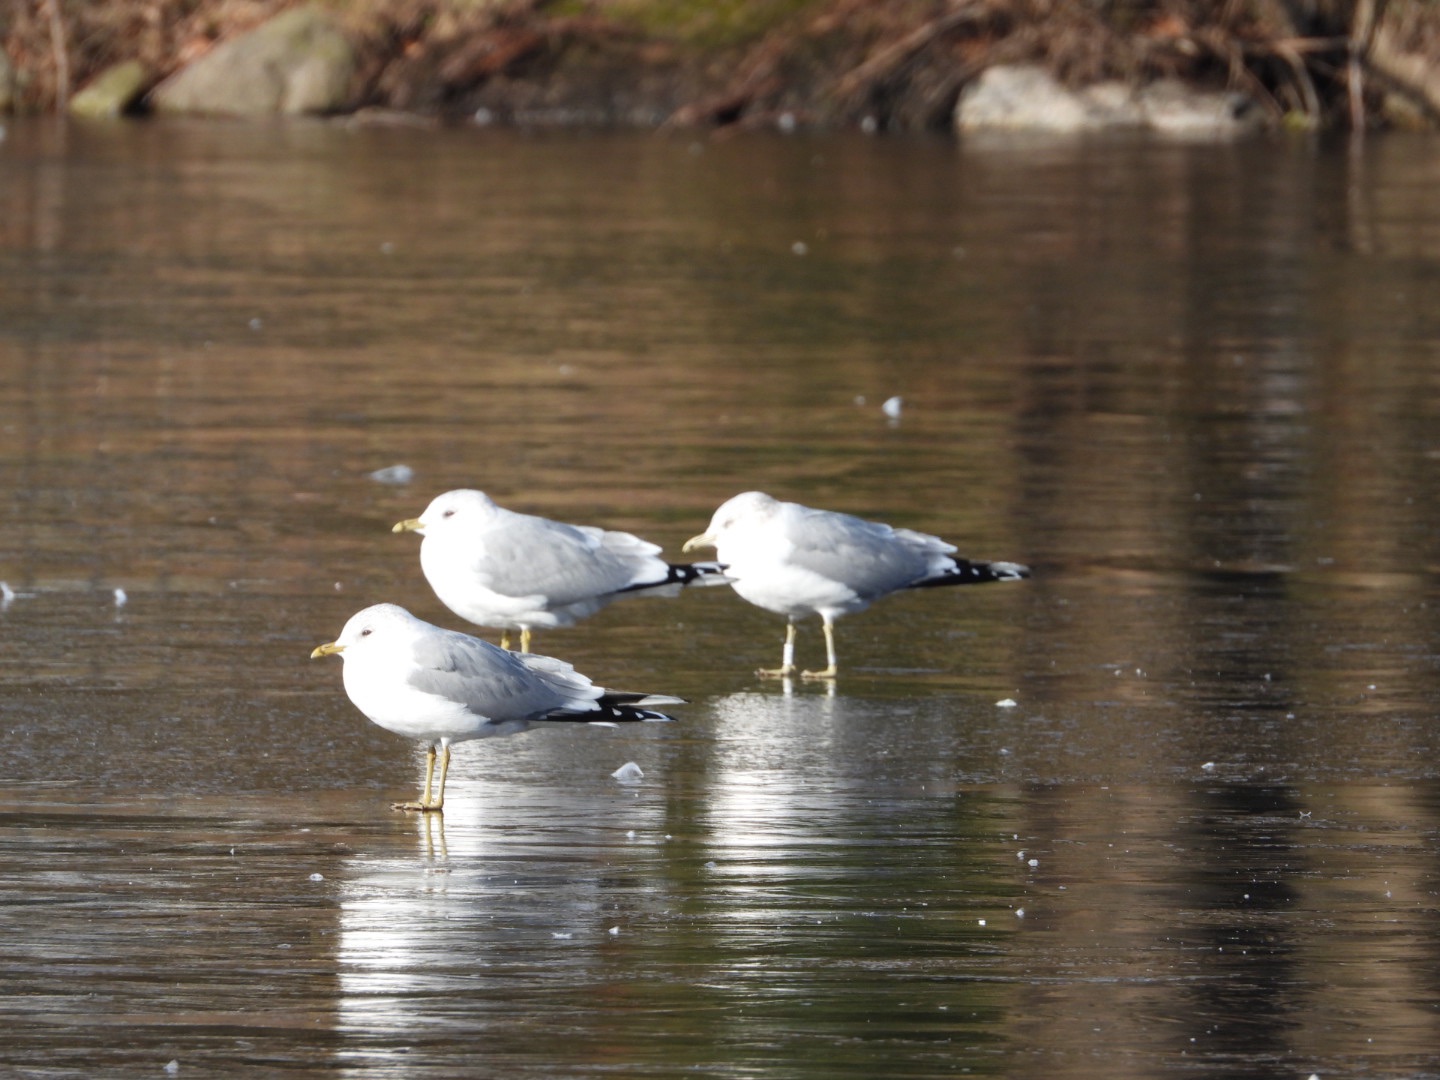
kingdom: Animalia
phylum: Chordata
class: Aves
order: Charadriiformes
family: Laridae
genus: Larus
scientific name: Larus canus
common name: Stormmåge
